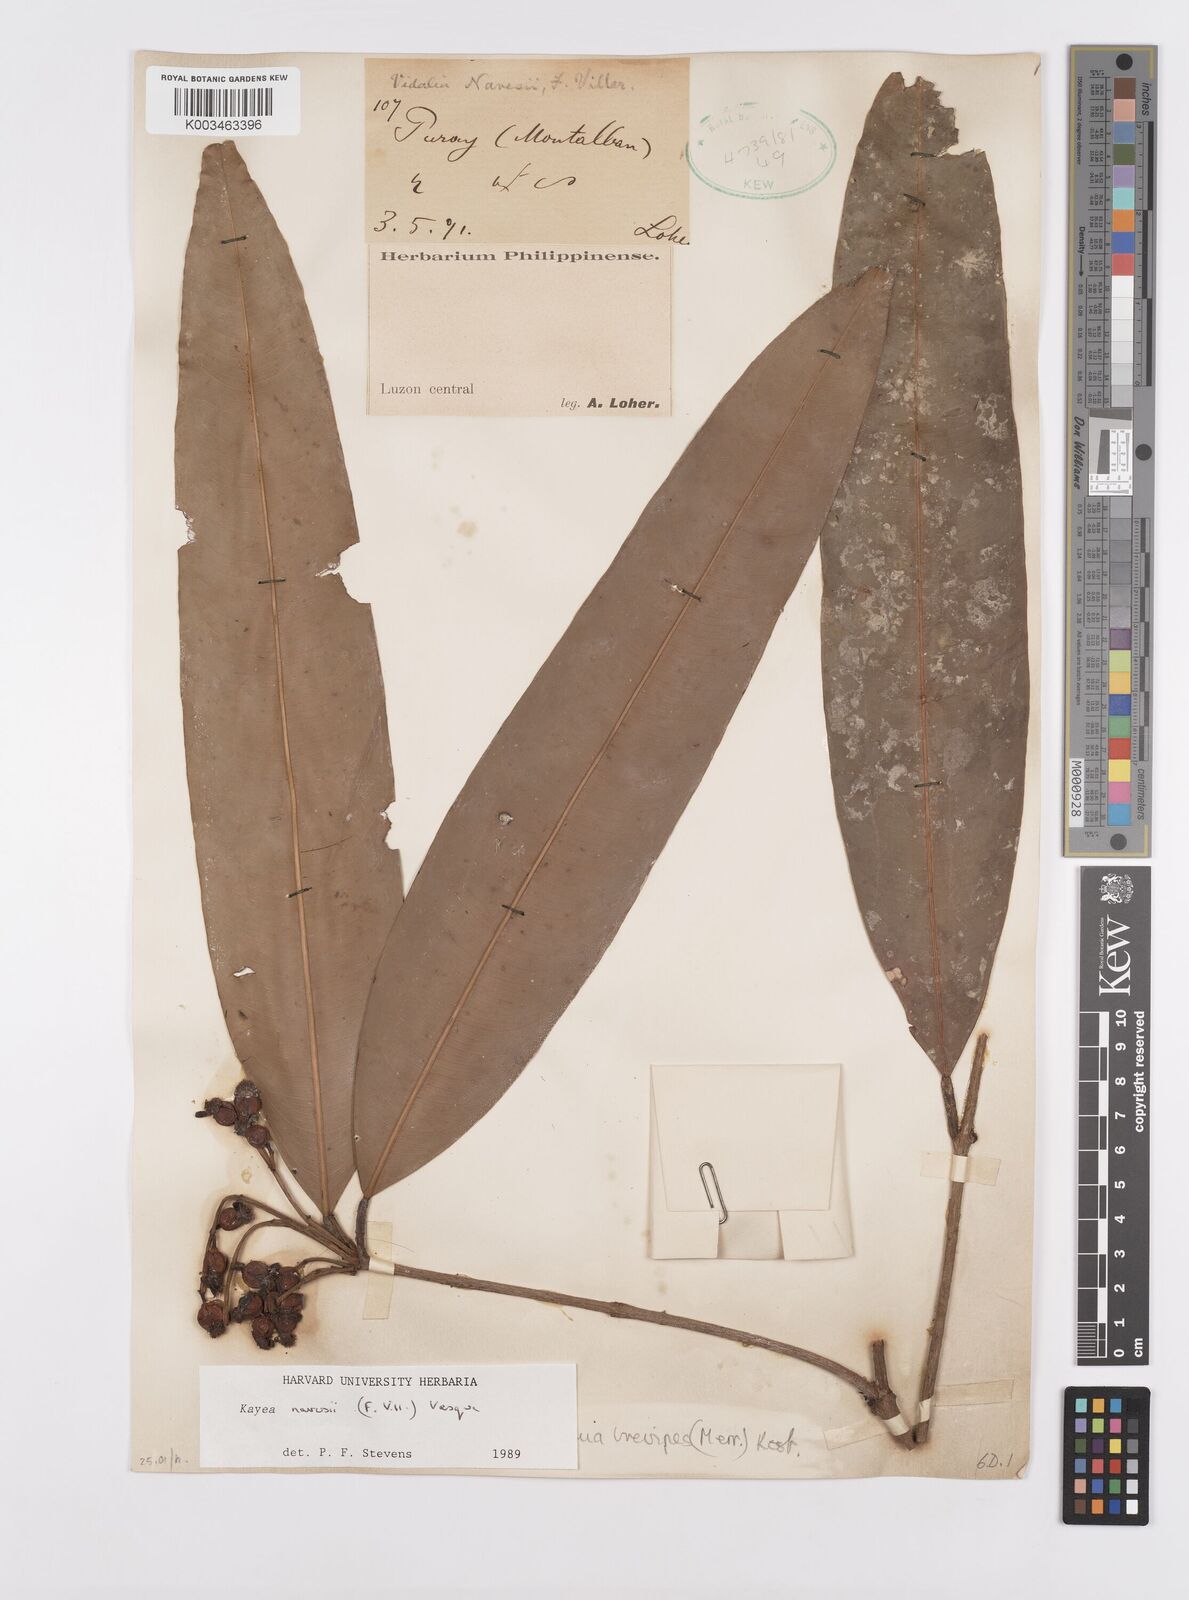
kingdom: Plantae
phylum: Tracheophyta
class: Magnoliopsida
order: Malpighiales
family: Calophyllaceae
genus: Kayea
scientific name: Kayea navesii
